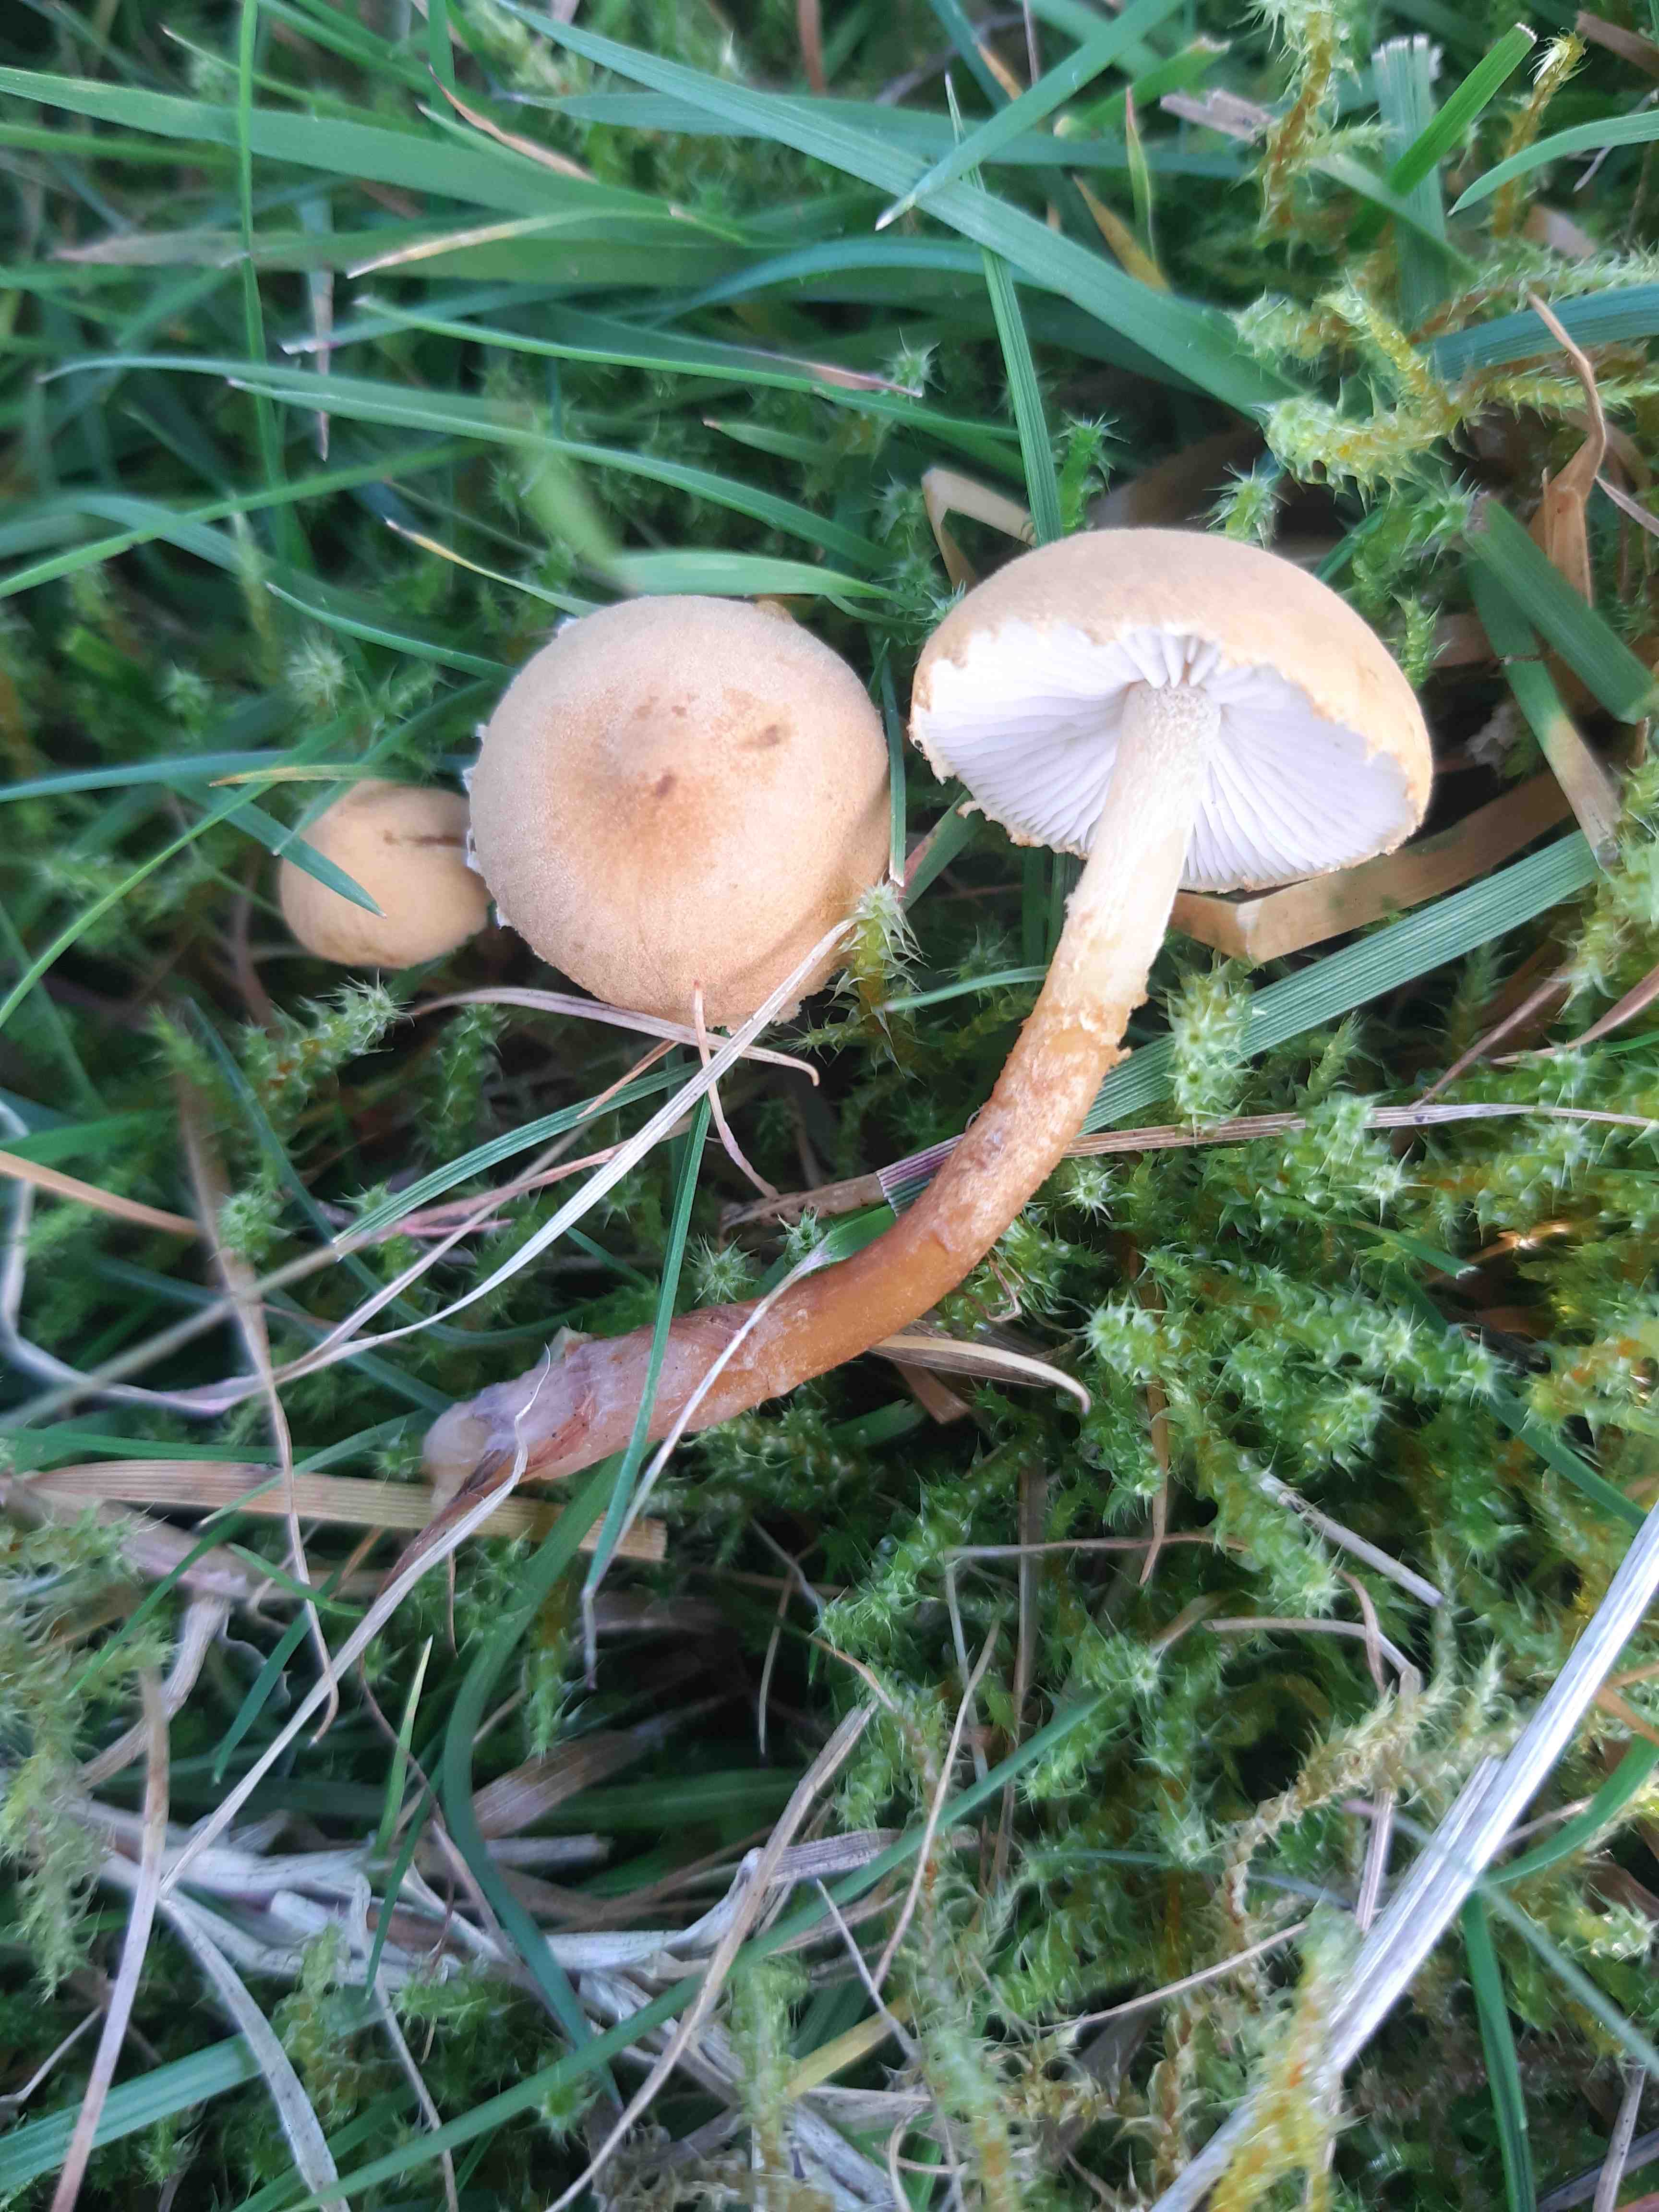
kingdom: Fungi
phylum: Basidiomycota
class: Agaricomycetes
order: Agaricales
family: Tricholomataceae
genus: Cystoderma
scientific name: Cystoderma amianthinum
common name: okkergul grynhat
